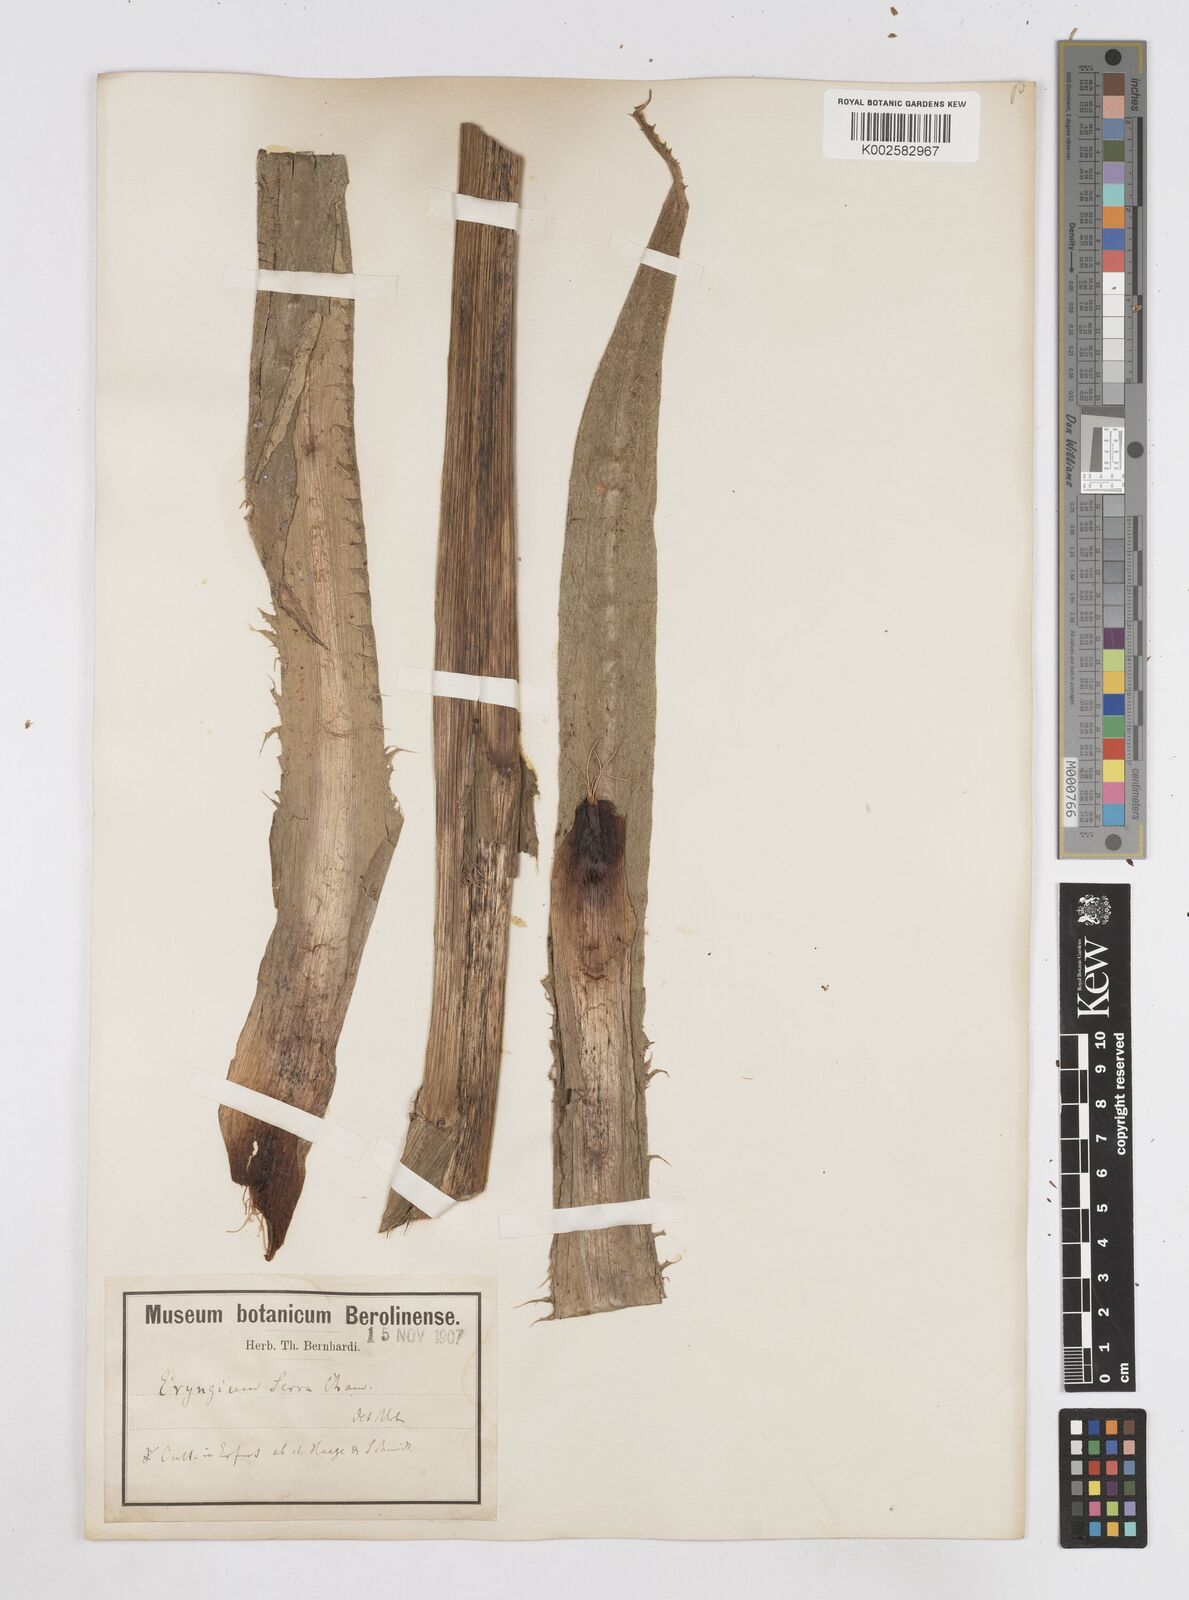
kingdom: Plantae
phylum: Tracheophyta
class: Magnoliopsida
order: Apiales
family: Apiaceae
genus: Eryngium
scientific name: Eryngium serra
